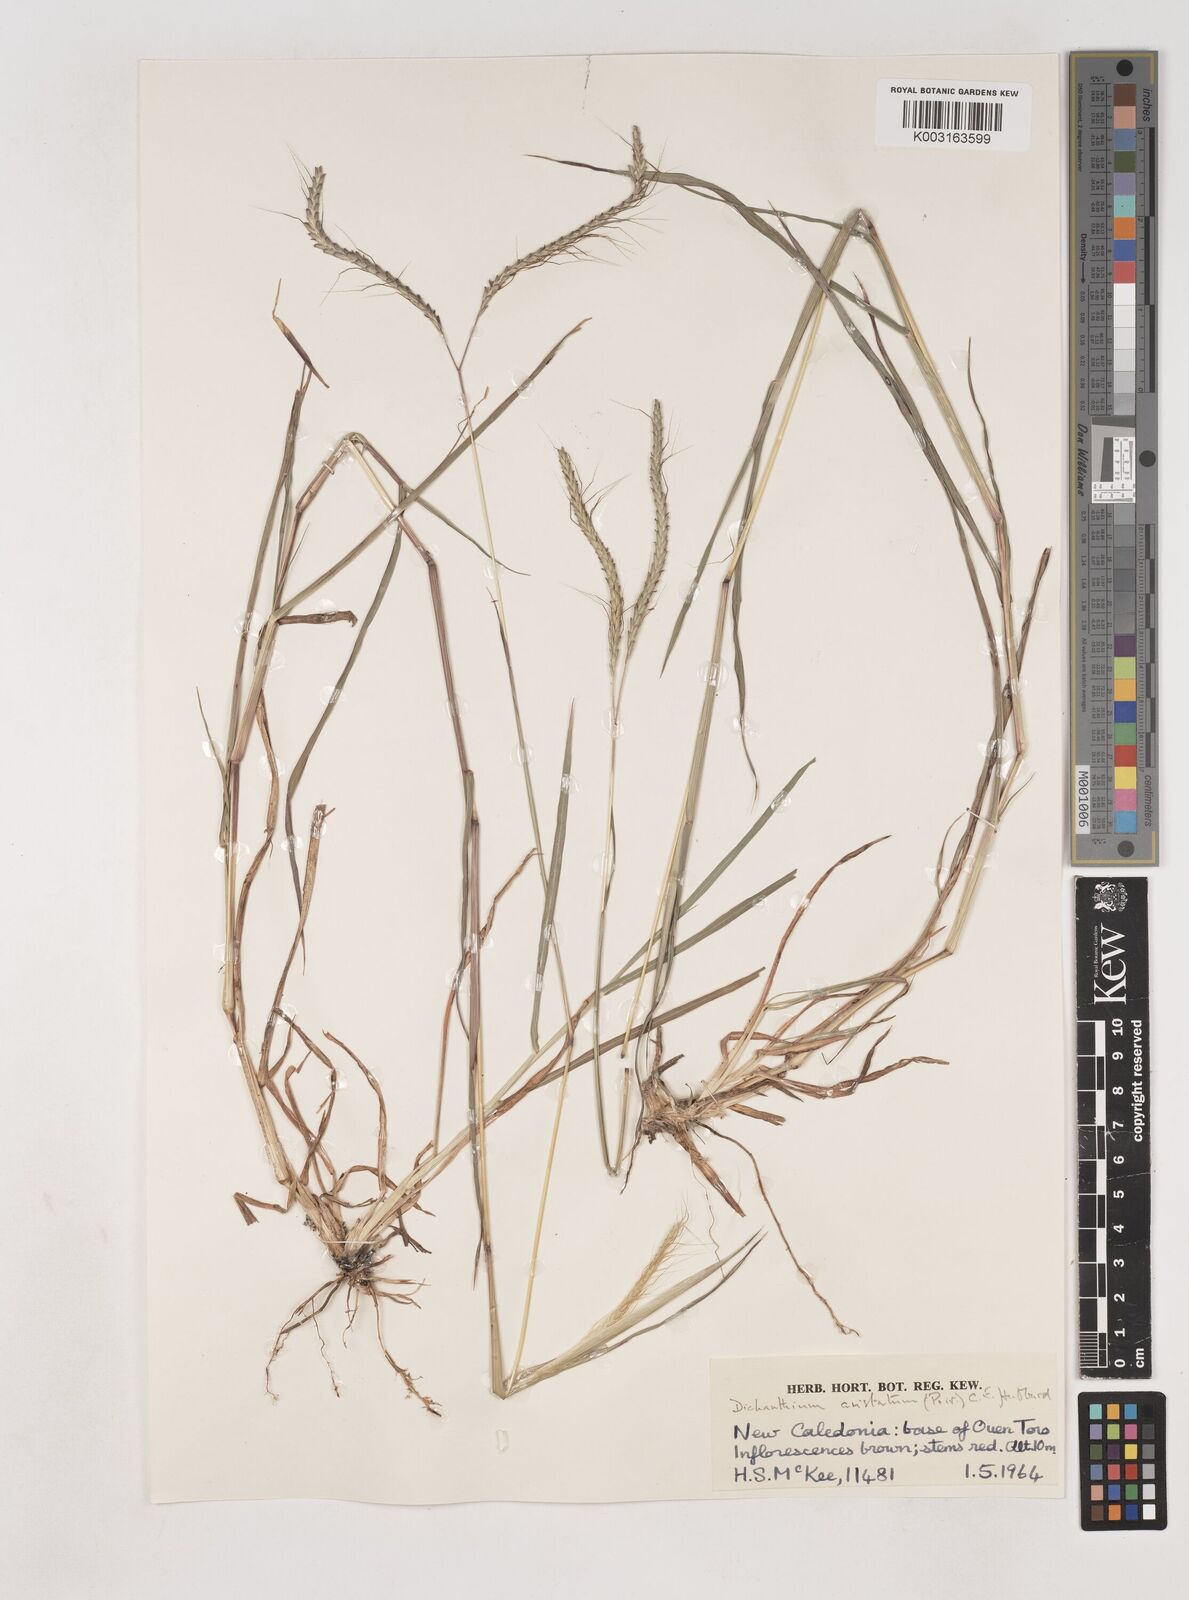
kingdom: Plantae
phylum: Tracheophyta
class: Liliopsida
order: Poales
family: Poaceae
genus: Dichanthium
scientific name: Dichanthium aristatum
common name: Angleton bluestem
